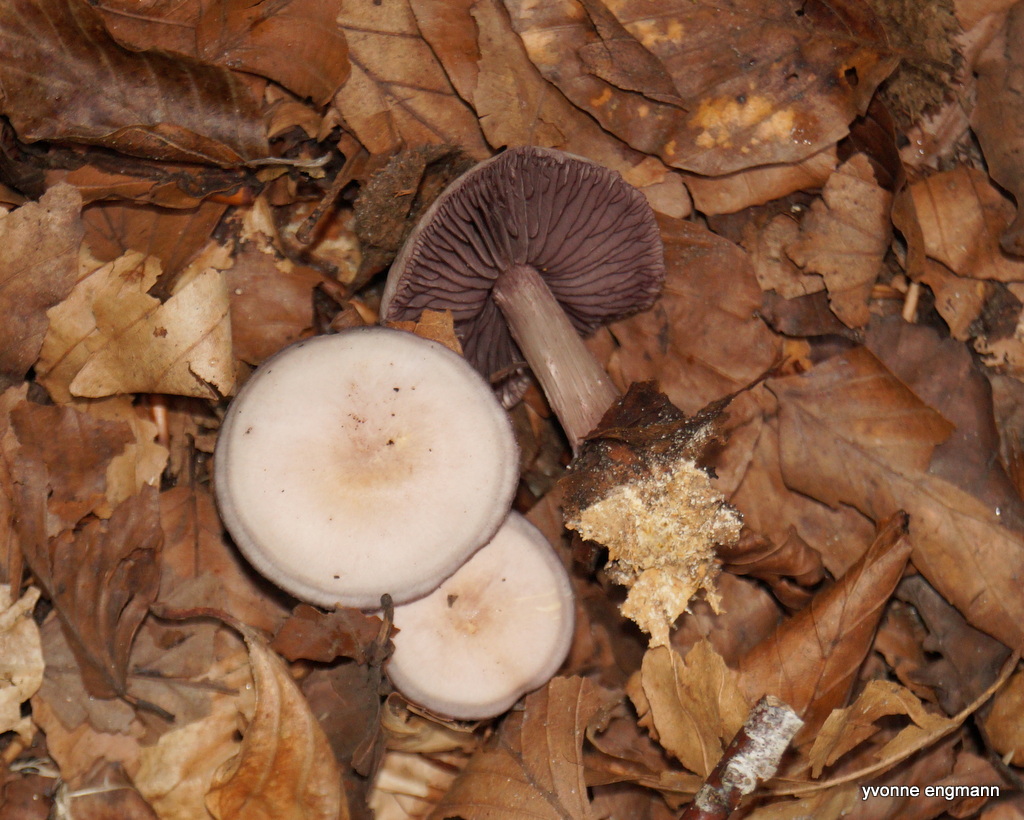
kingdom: Fungi
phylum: Basidiomycota
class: Agaricomycetes
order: Agaricales
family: Mycenaceae
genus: Mycena
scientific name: Mycena pelianthina
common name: mørkbladet huesvamp
